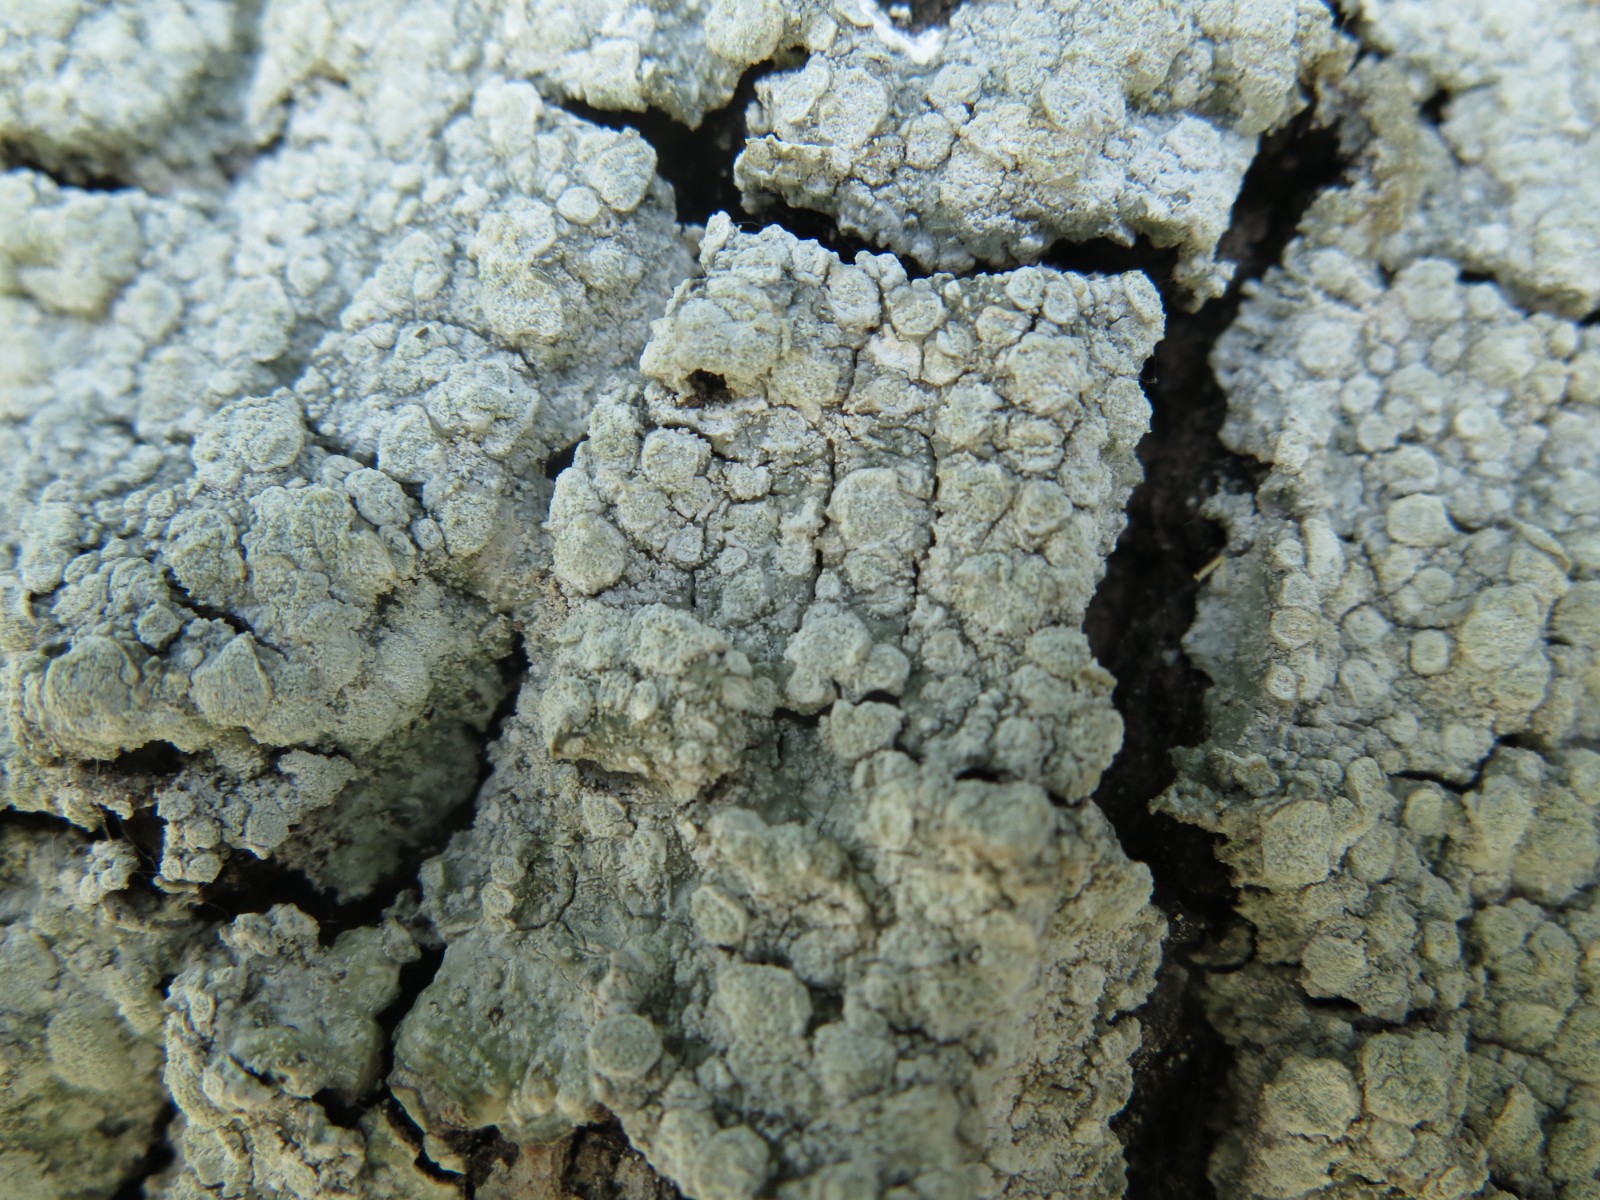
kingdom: Fungi
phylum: Ascomycota
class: Lecanoromycetes
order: Pertusariales
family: Pertusariaceae
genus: Lepra
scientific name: Lepra amara
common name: bitter prikvortelav
